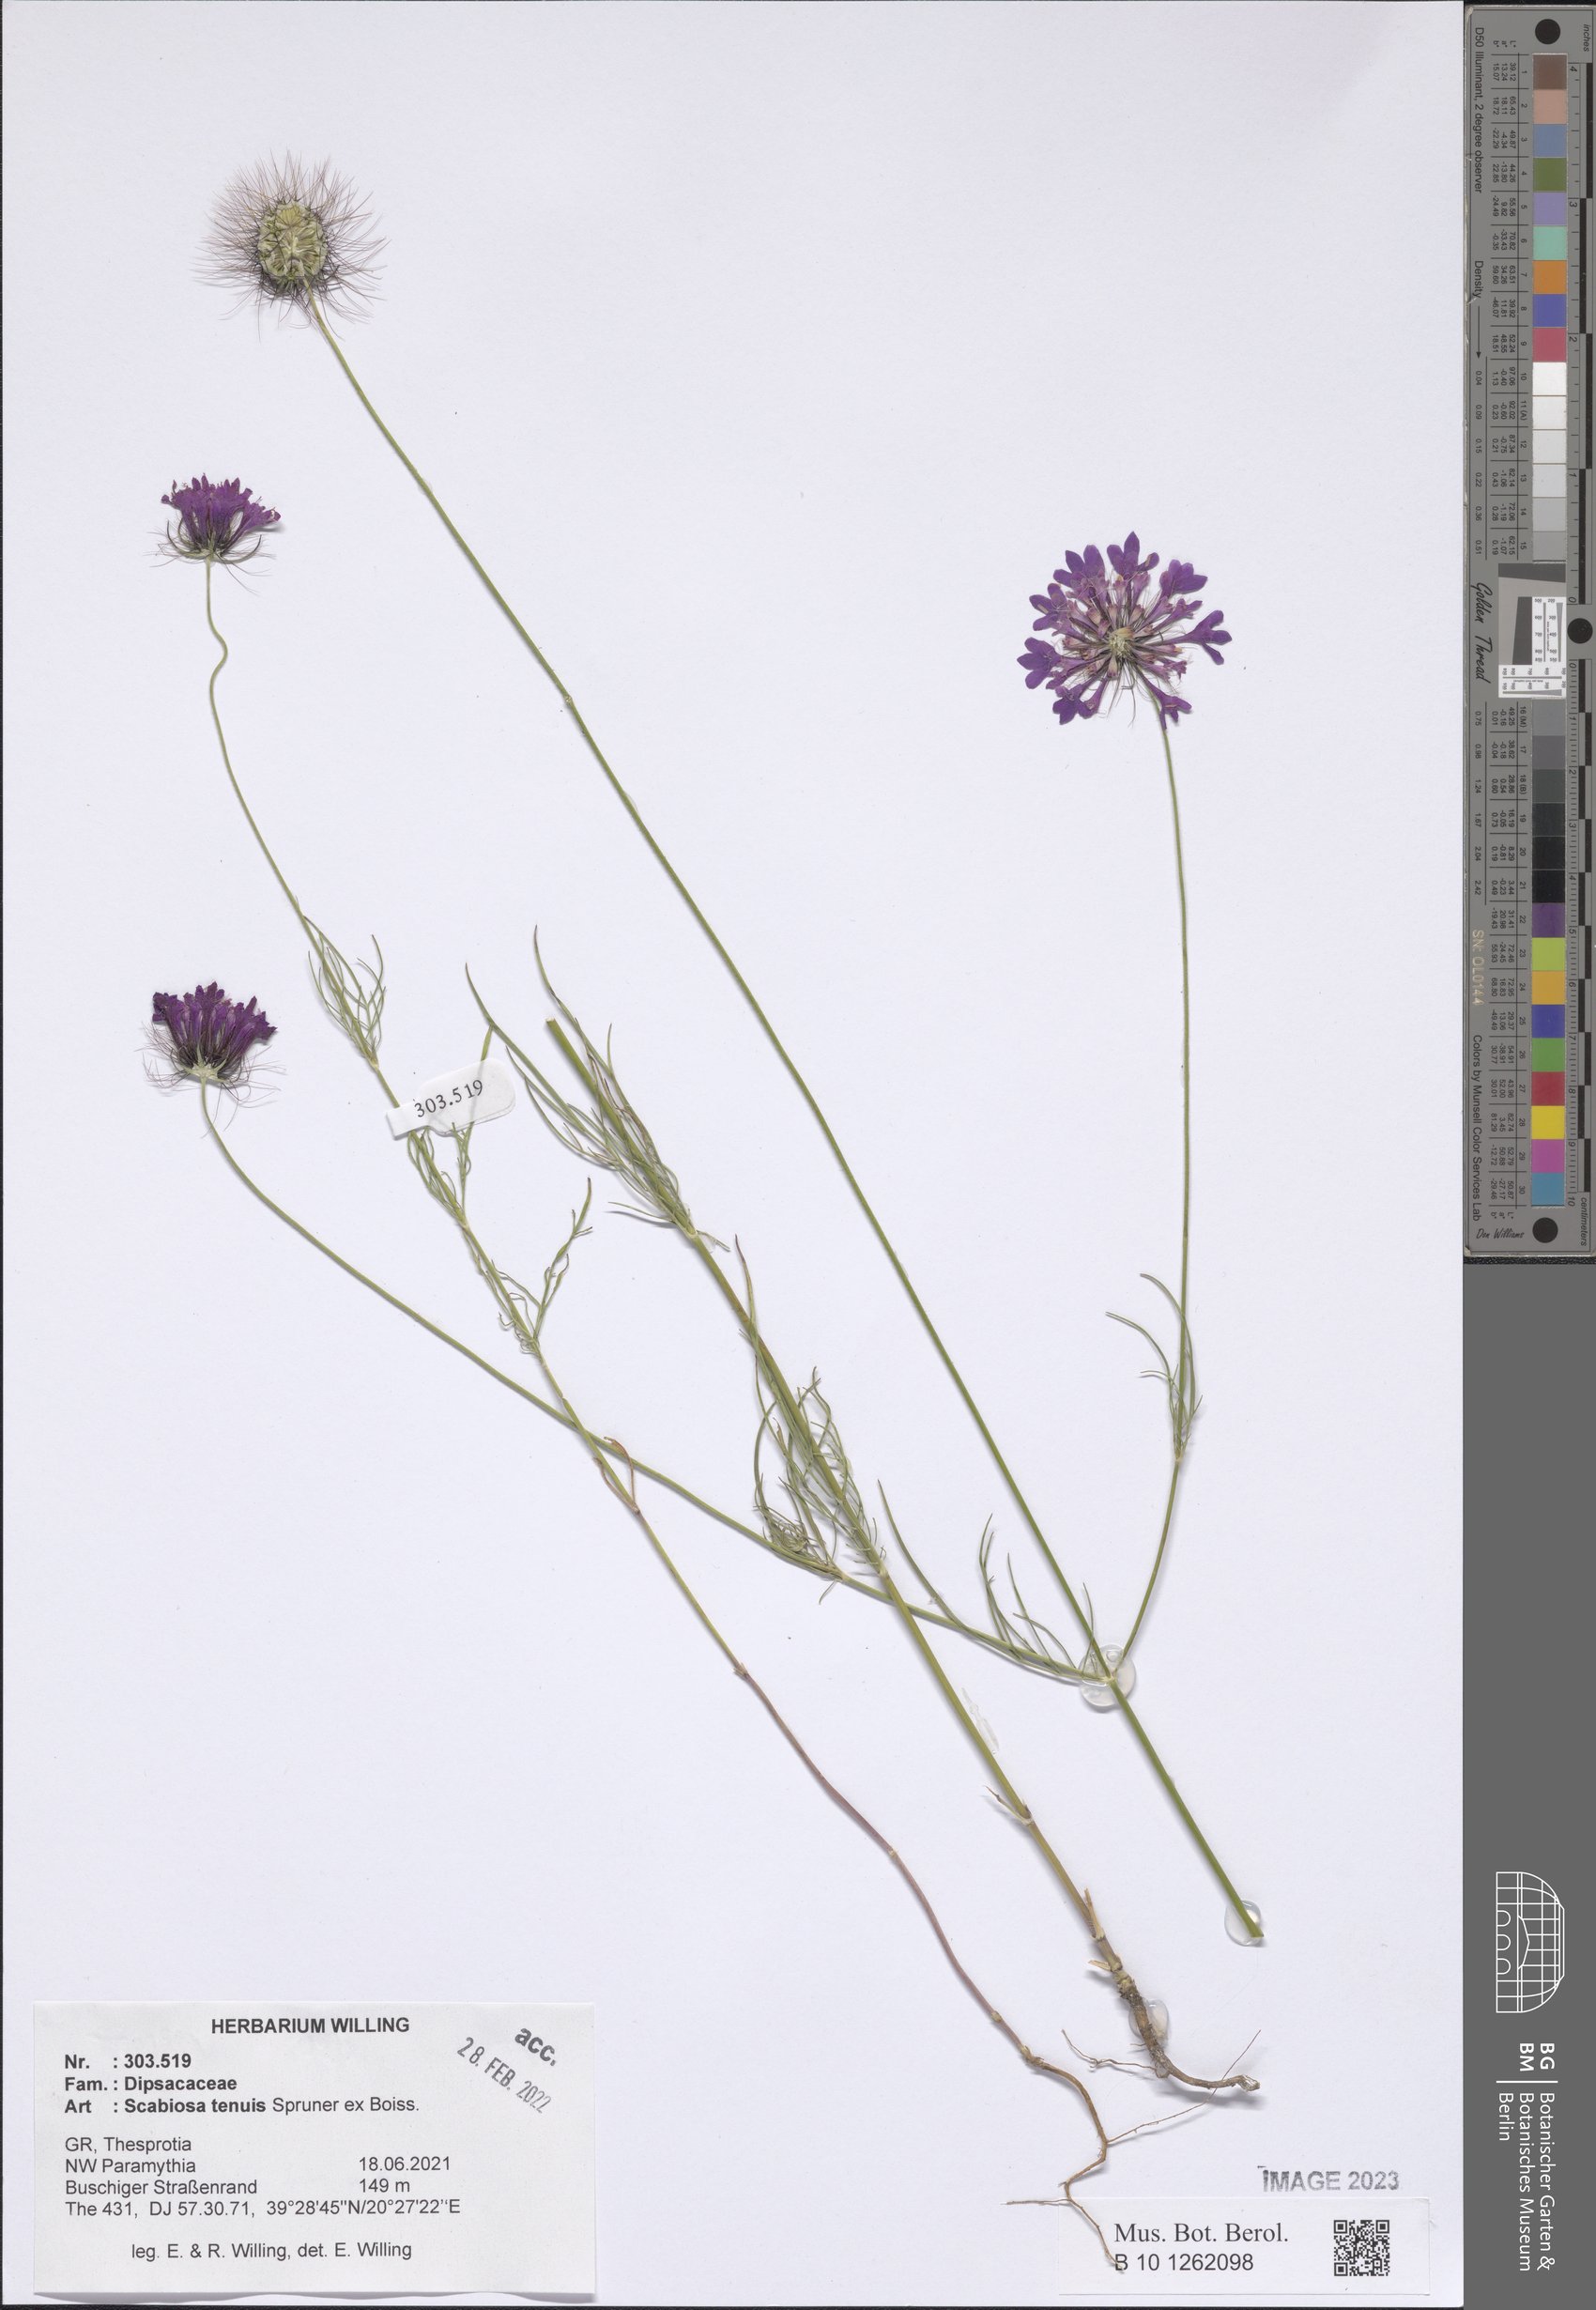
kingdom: Plantae
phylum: Tracheophyta
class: Magnoliopsida
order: Dipsacales
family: Caprifoliaceae
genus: Scabiosa
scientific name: Scabiosa tenuis
